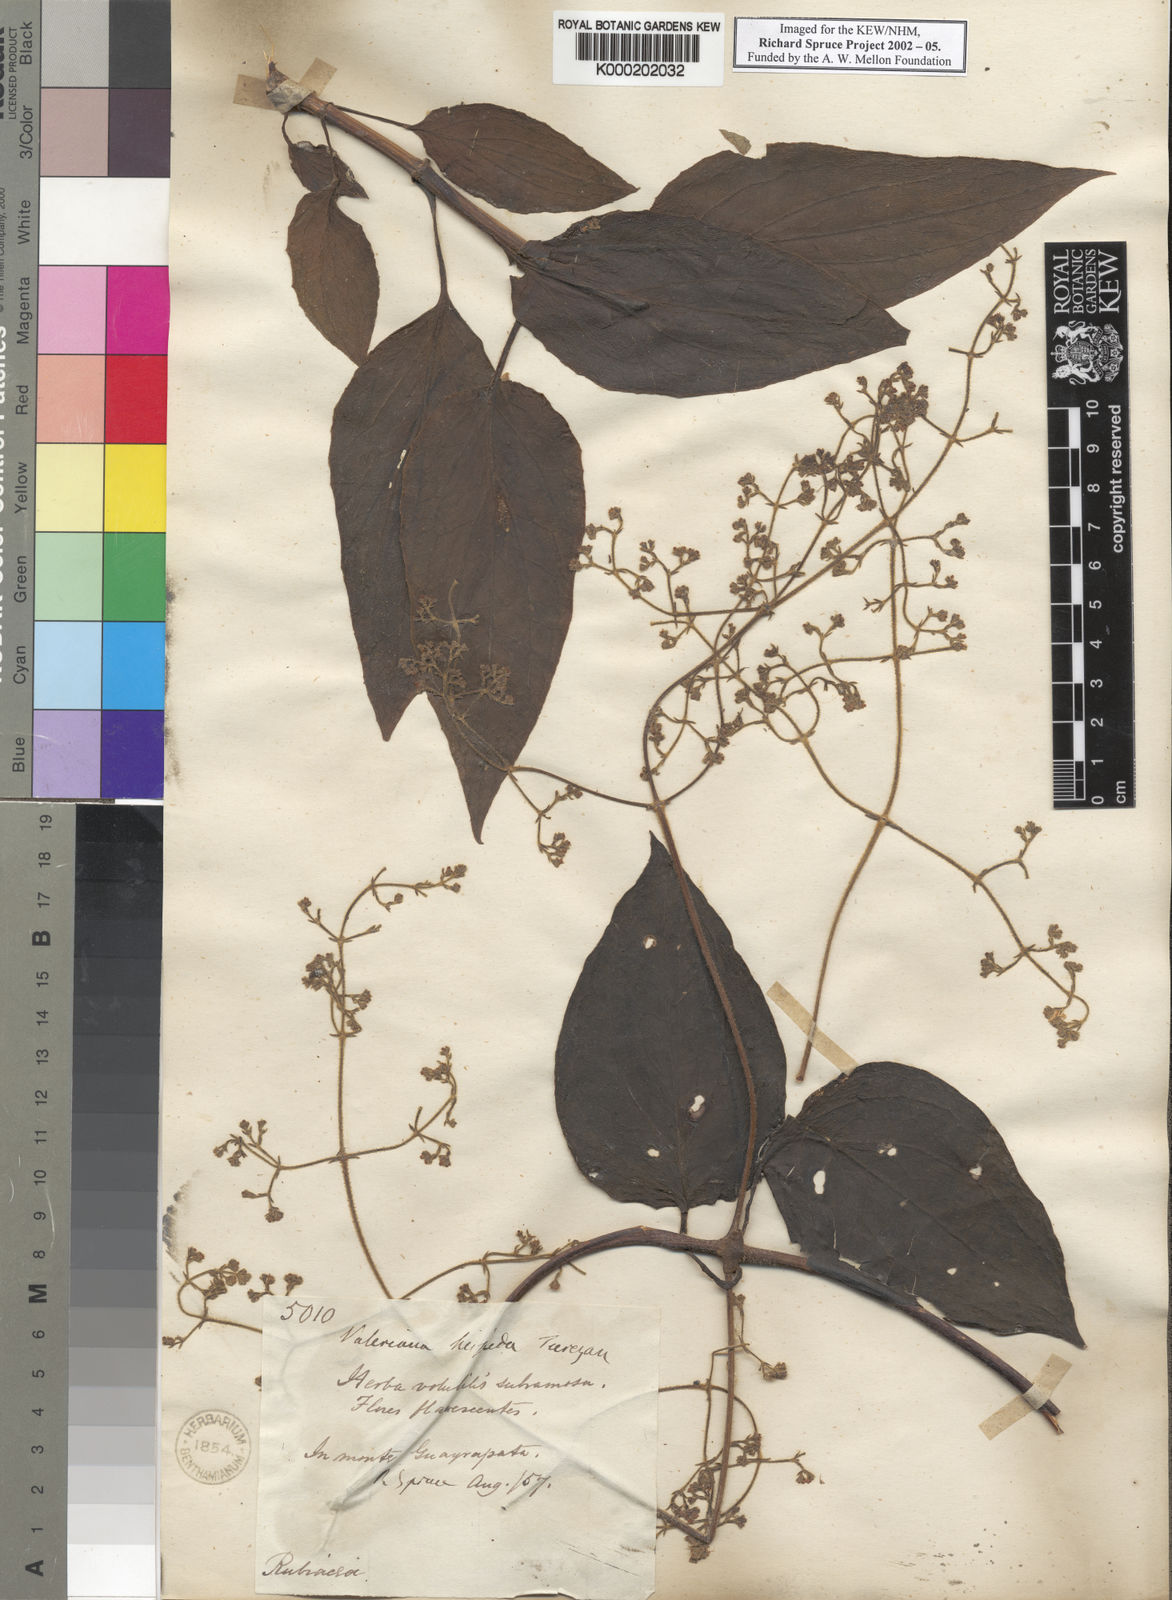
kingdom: Plantae
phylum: Tracheophyta
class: Magnoliopsida
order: Dipsacales
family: Caprifoliaceae
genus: Valeriana
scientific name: Valeriana clematitis
